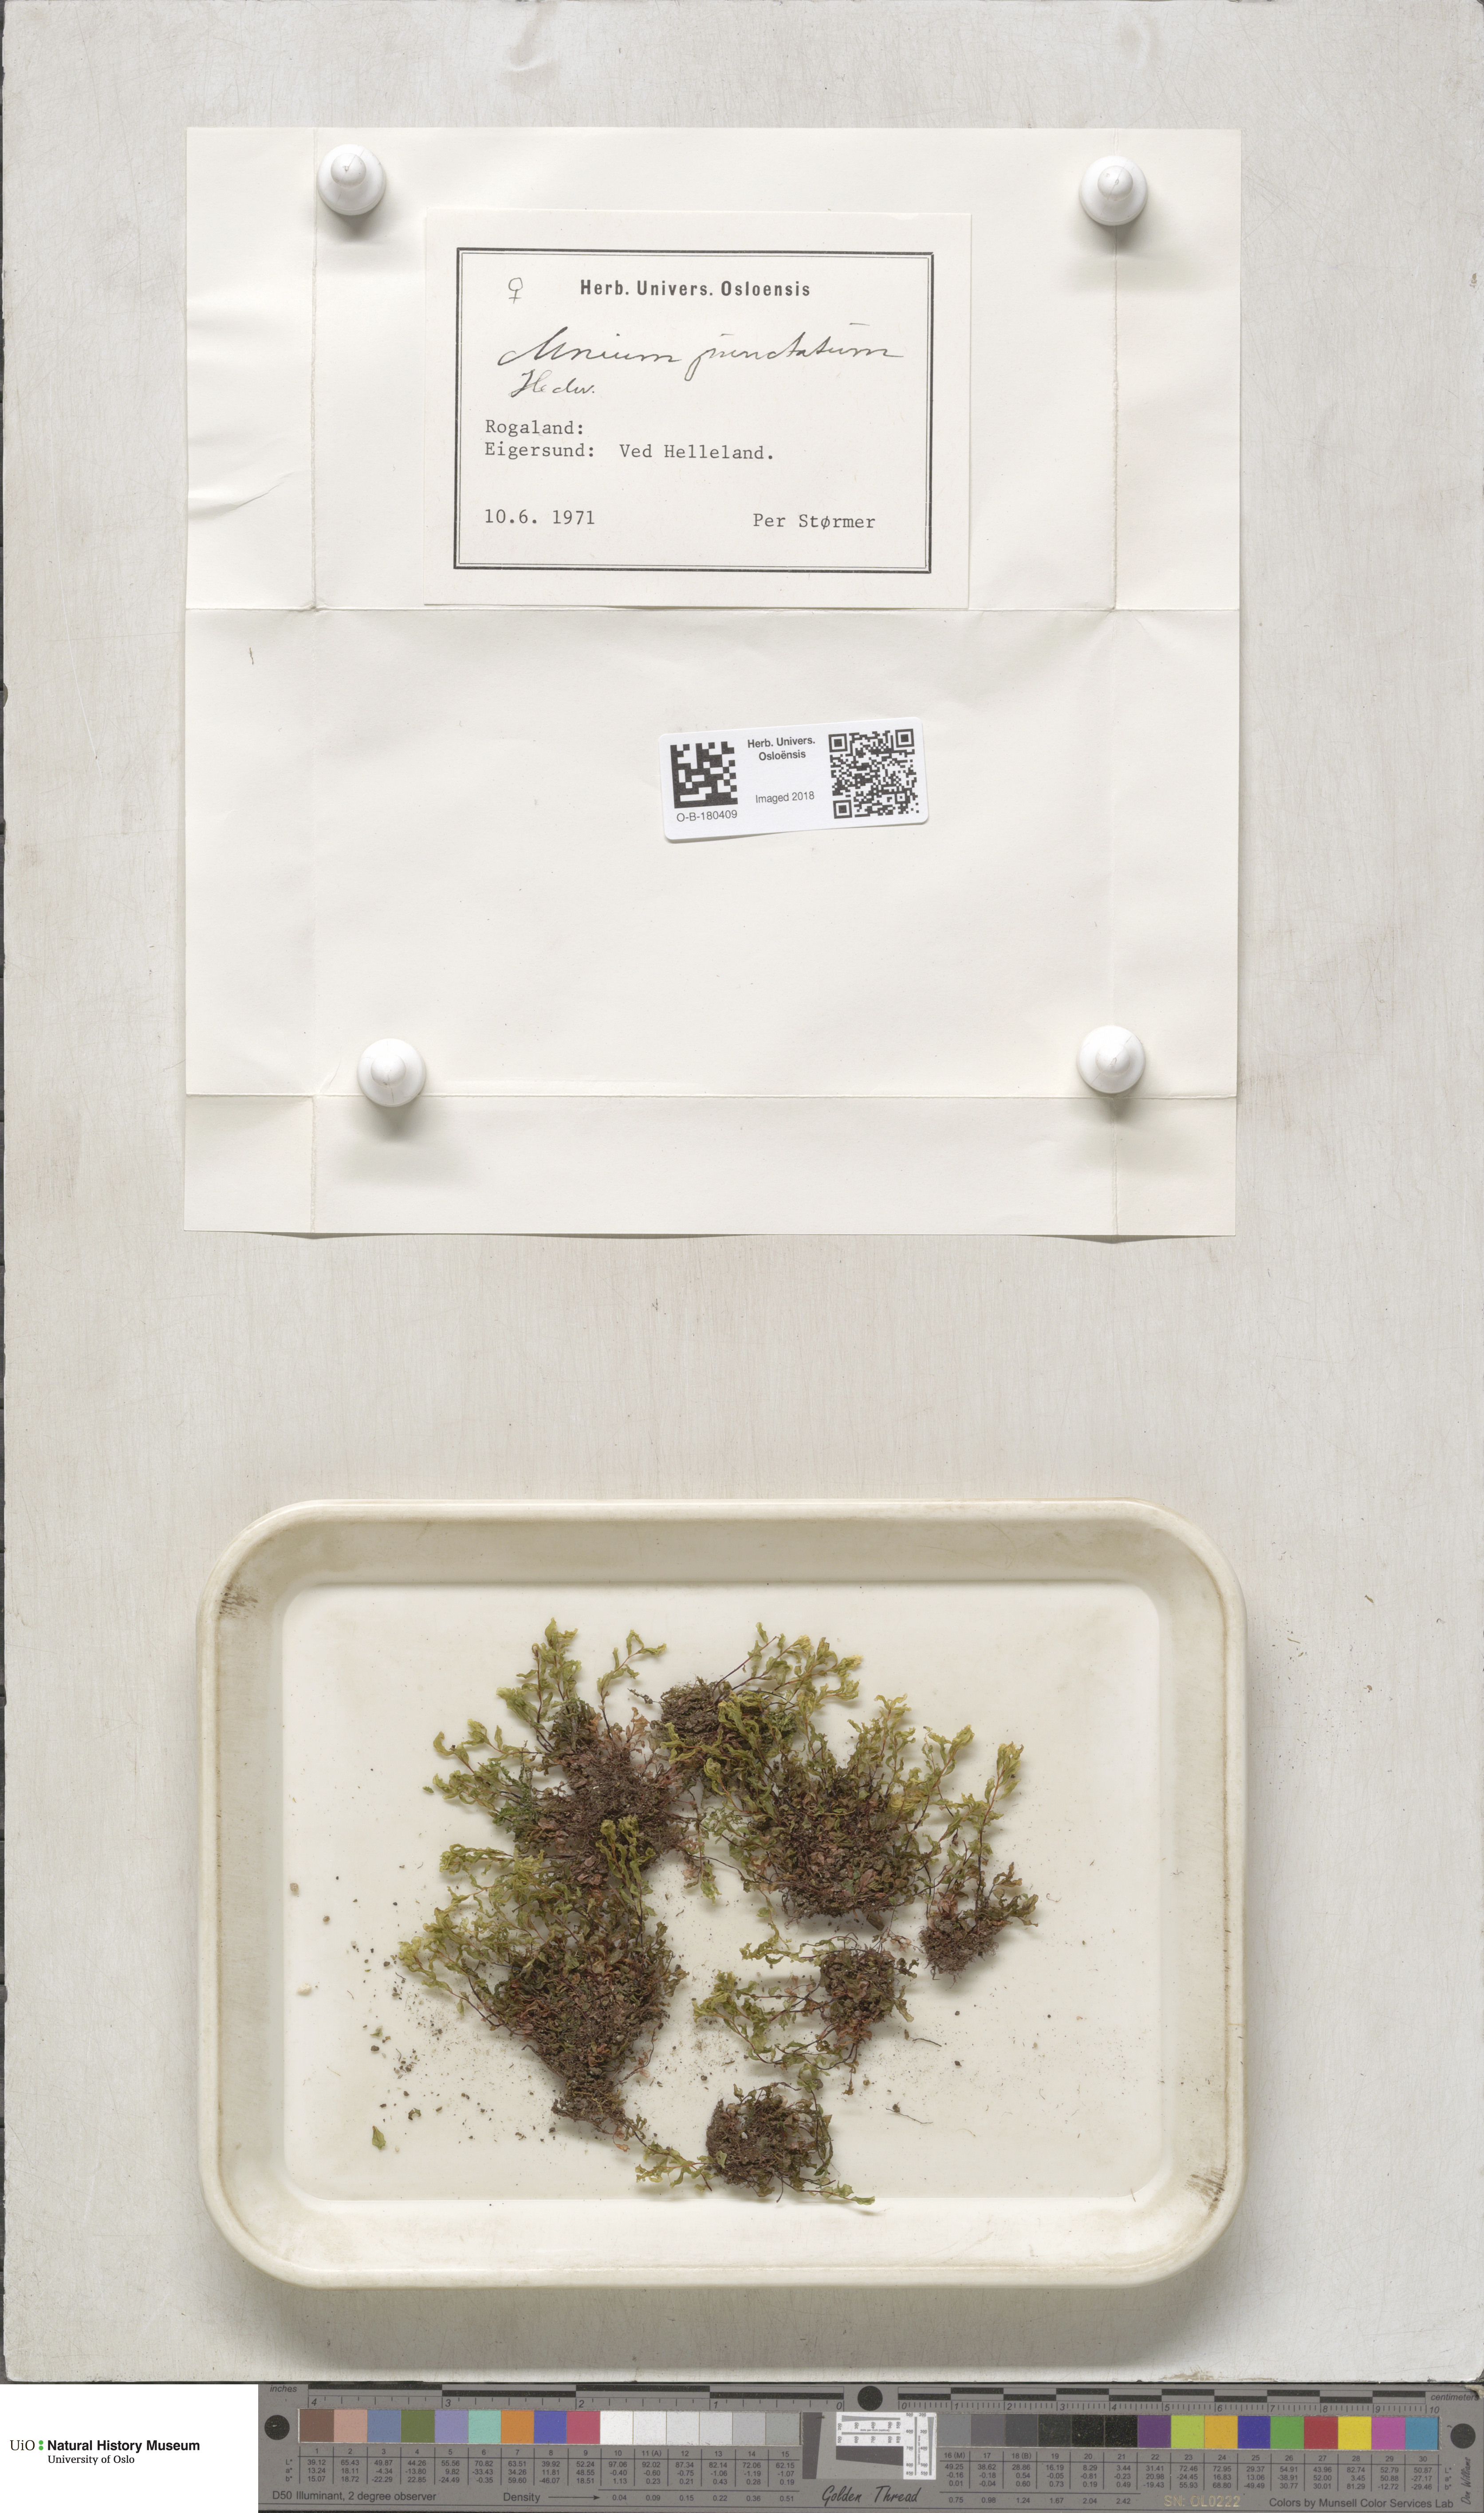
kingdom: Plantae
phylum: Bryophyta
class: Bryopsida
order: Bryales
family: Mniaceae
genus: Rhizomnium
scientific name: Rhizomnium punctatum
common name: Dotted leafy moss
